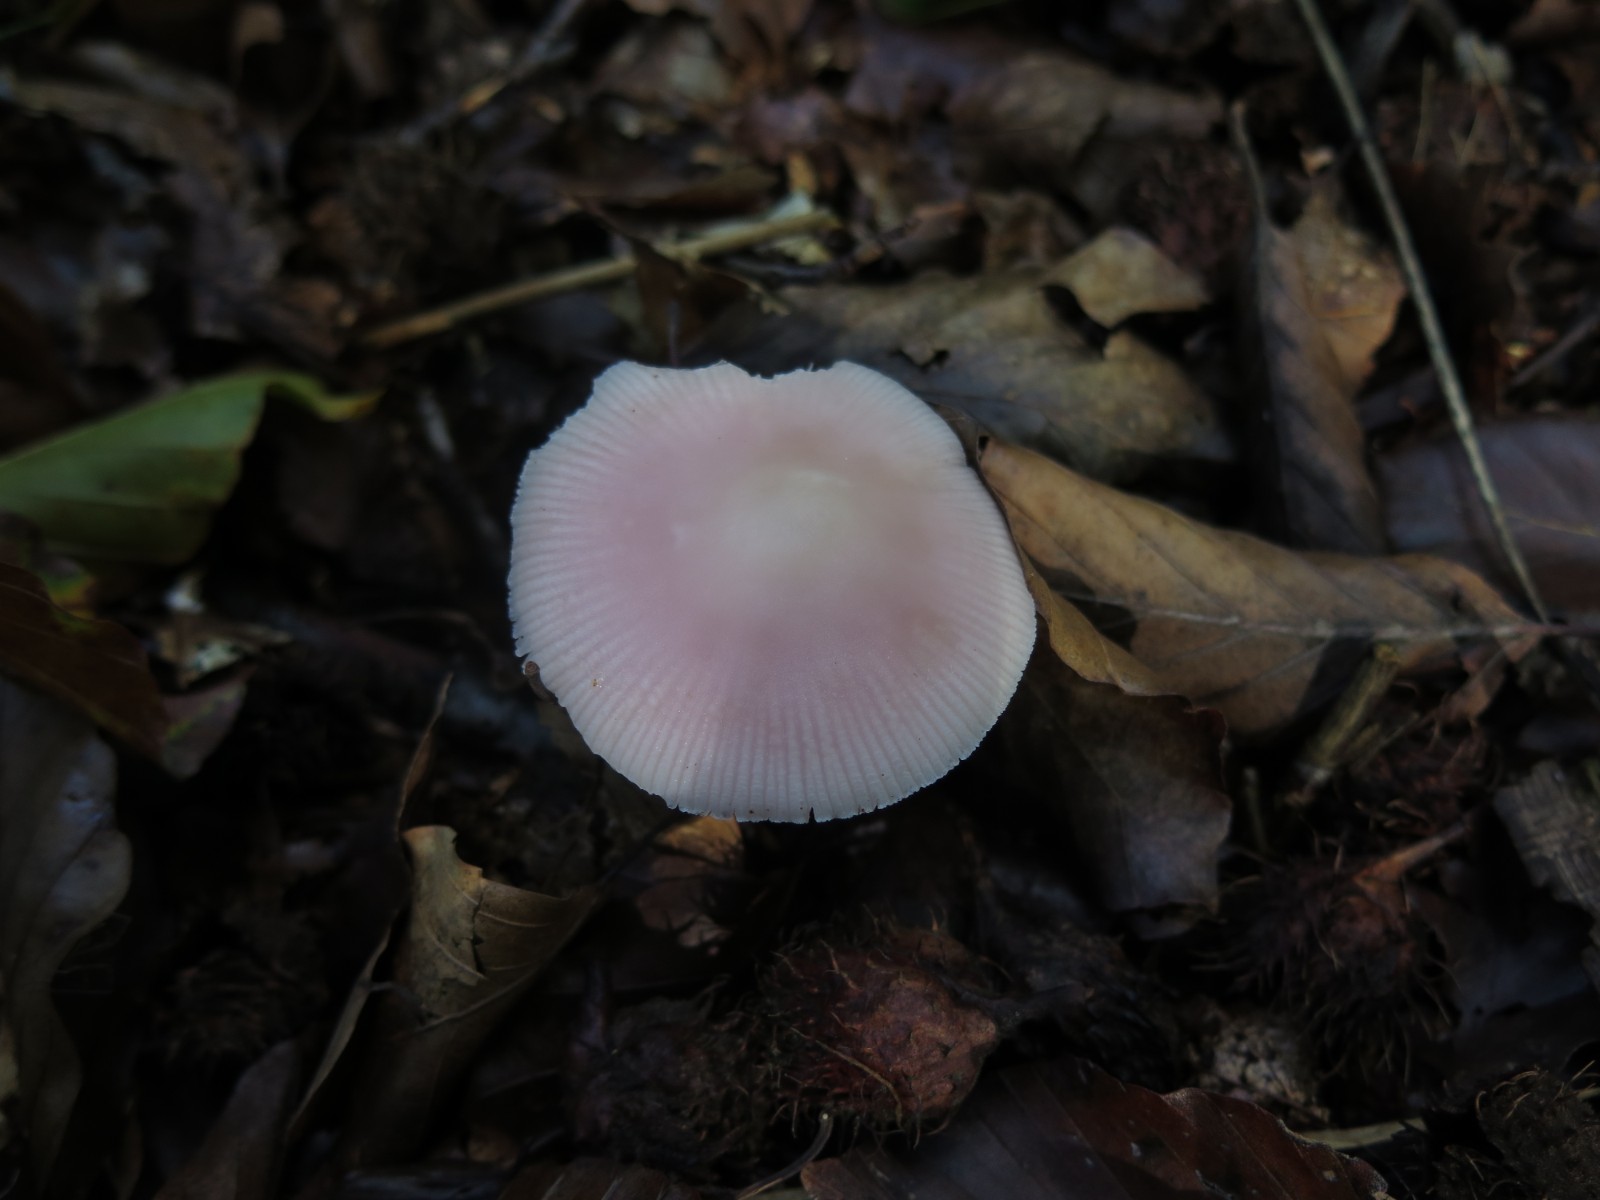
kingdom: Fungi
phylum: Basidiomycota
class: Agaricomycetes
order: Agaricales
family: Mycenaceae
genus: Mycena
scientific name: Mycena rosea
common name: rosa huesvamp
